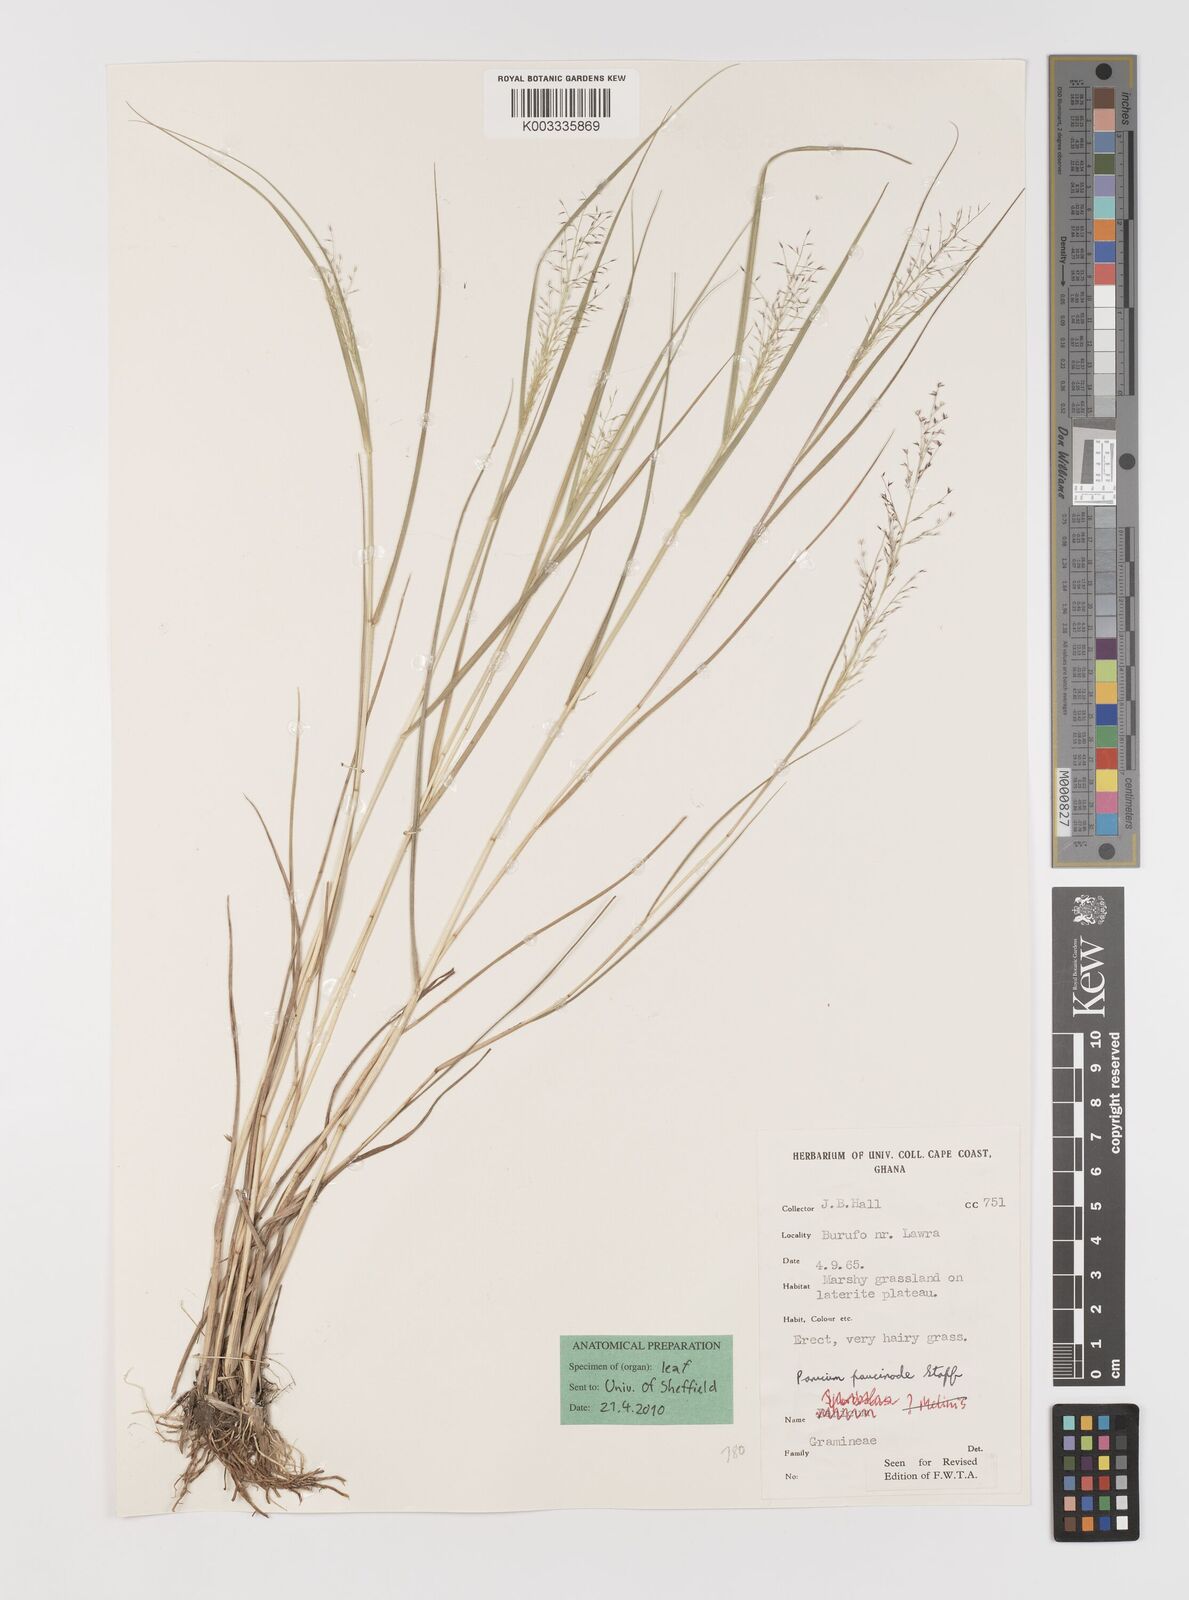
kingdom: Plantae
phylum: Tracheophyta
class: Liliopsida
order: Poales
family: Poaceae
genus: Panicum
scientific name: Panicum paucinode
